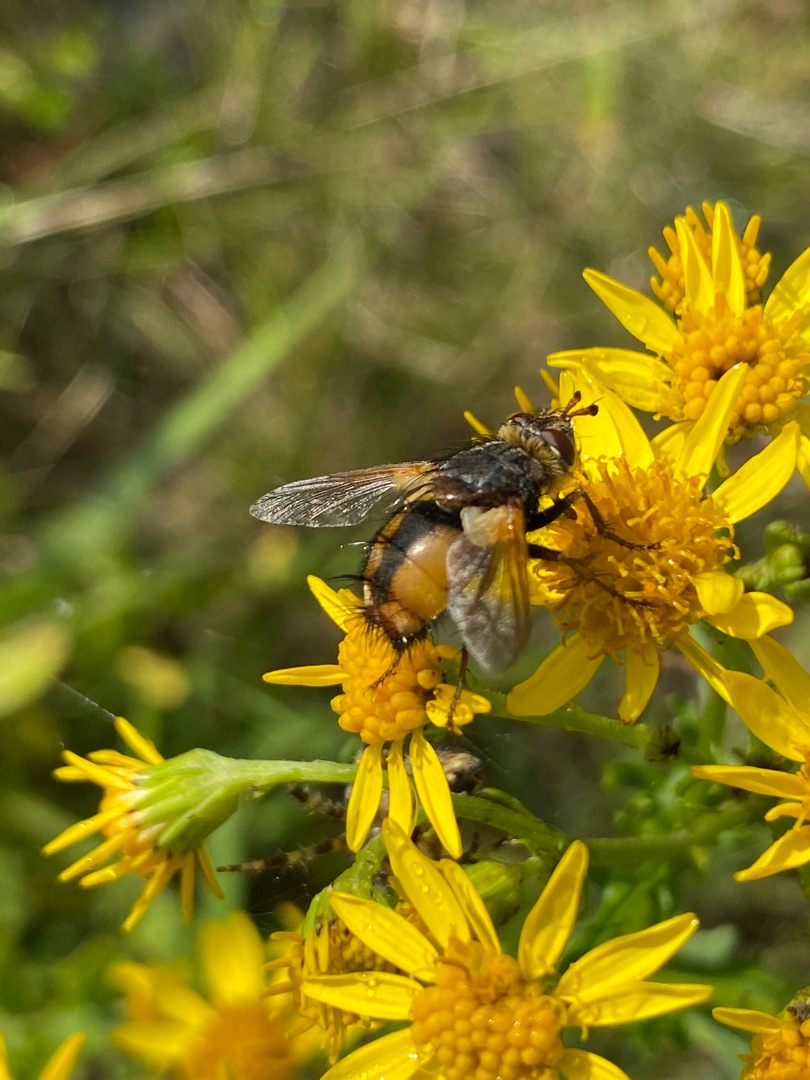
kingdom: Animalia
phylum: Arthropoda
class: Insecta
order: Diptera
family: Tachinidae
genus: Tachina
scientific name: Tachina fera
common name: Mellemfluen oskar
